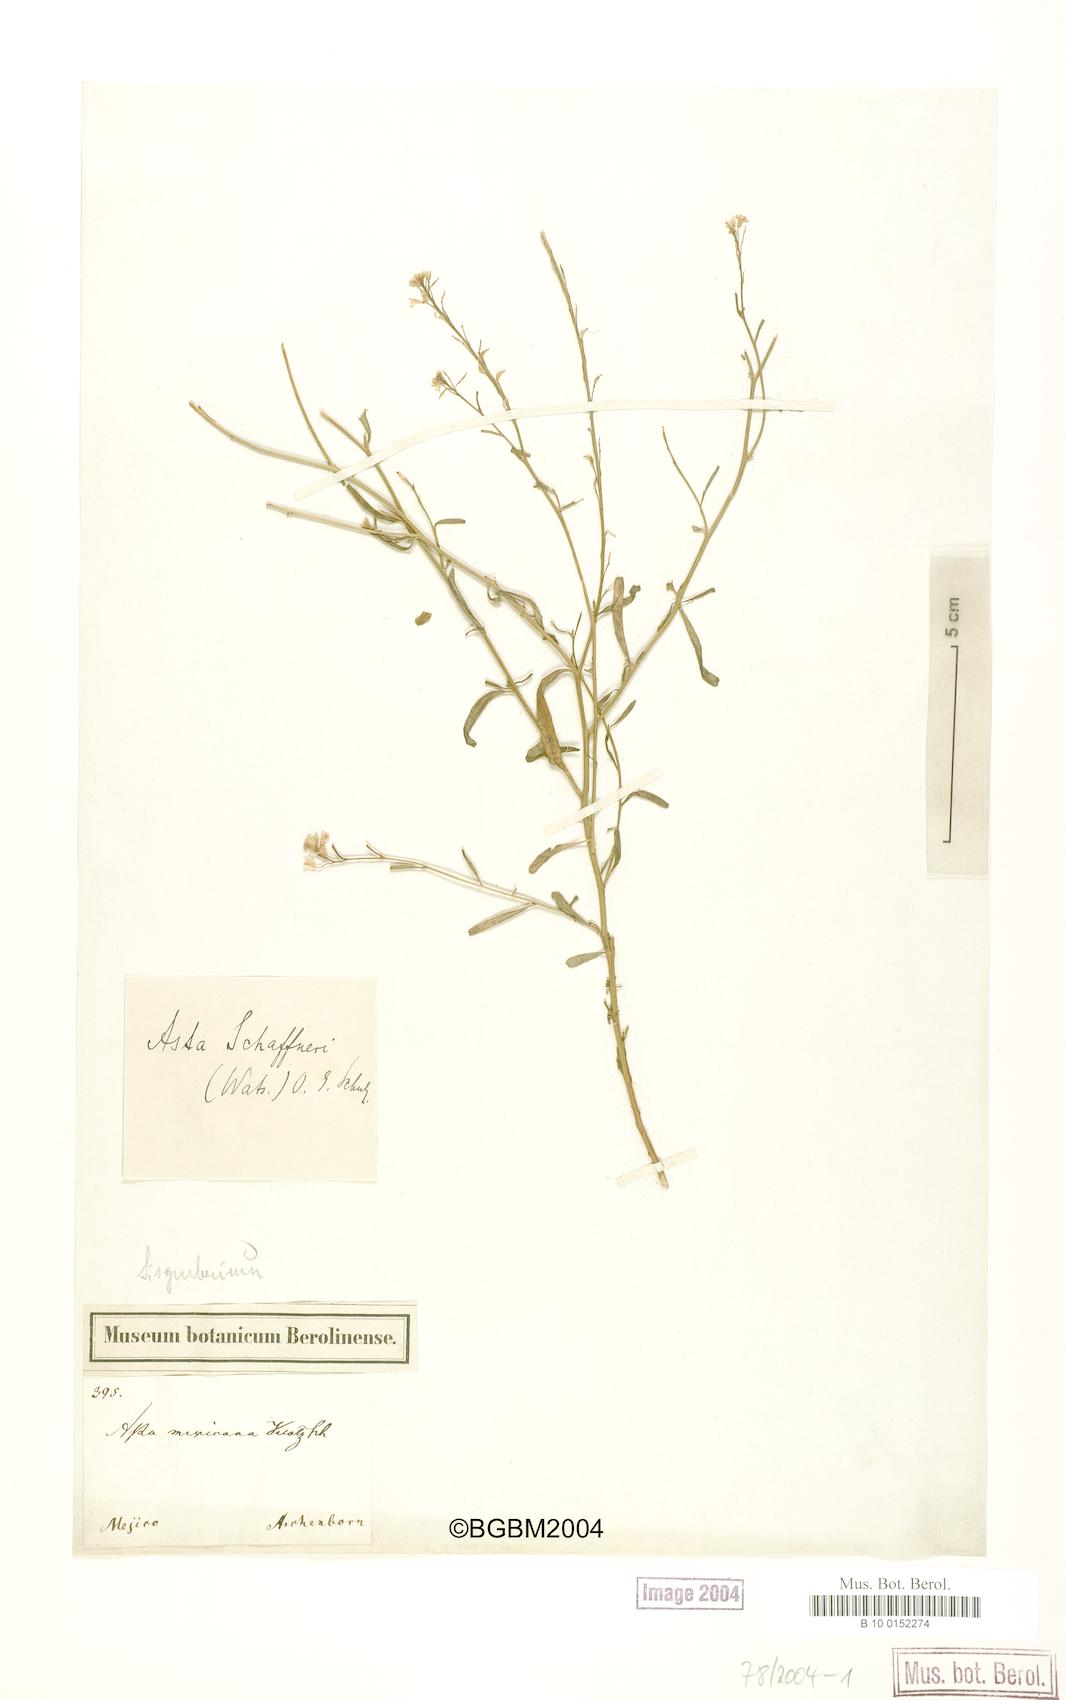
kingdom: Plantae
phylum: Tracheophyta
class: Magnoliopsida
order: Brassicales
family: Brassicaceae
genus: Asta
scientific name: Asta schaffneri
